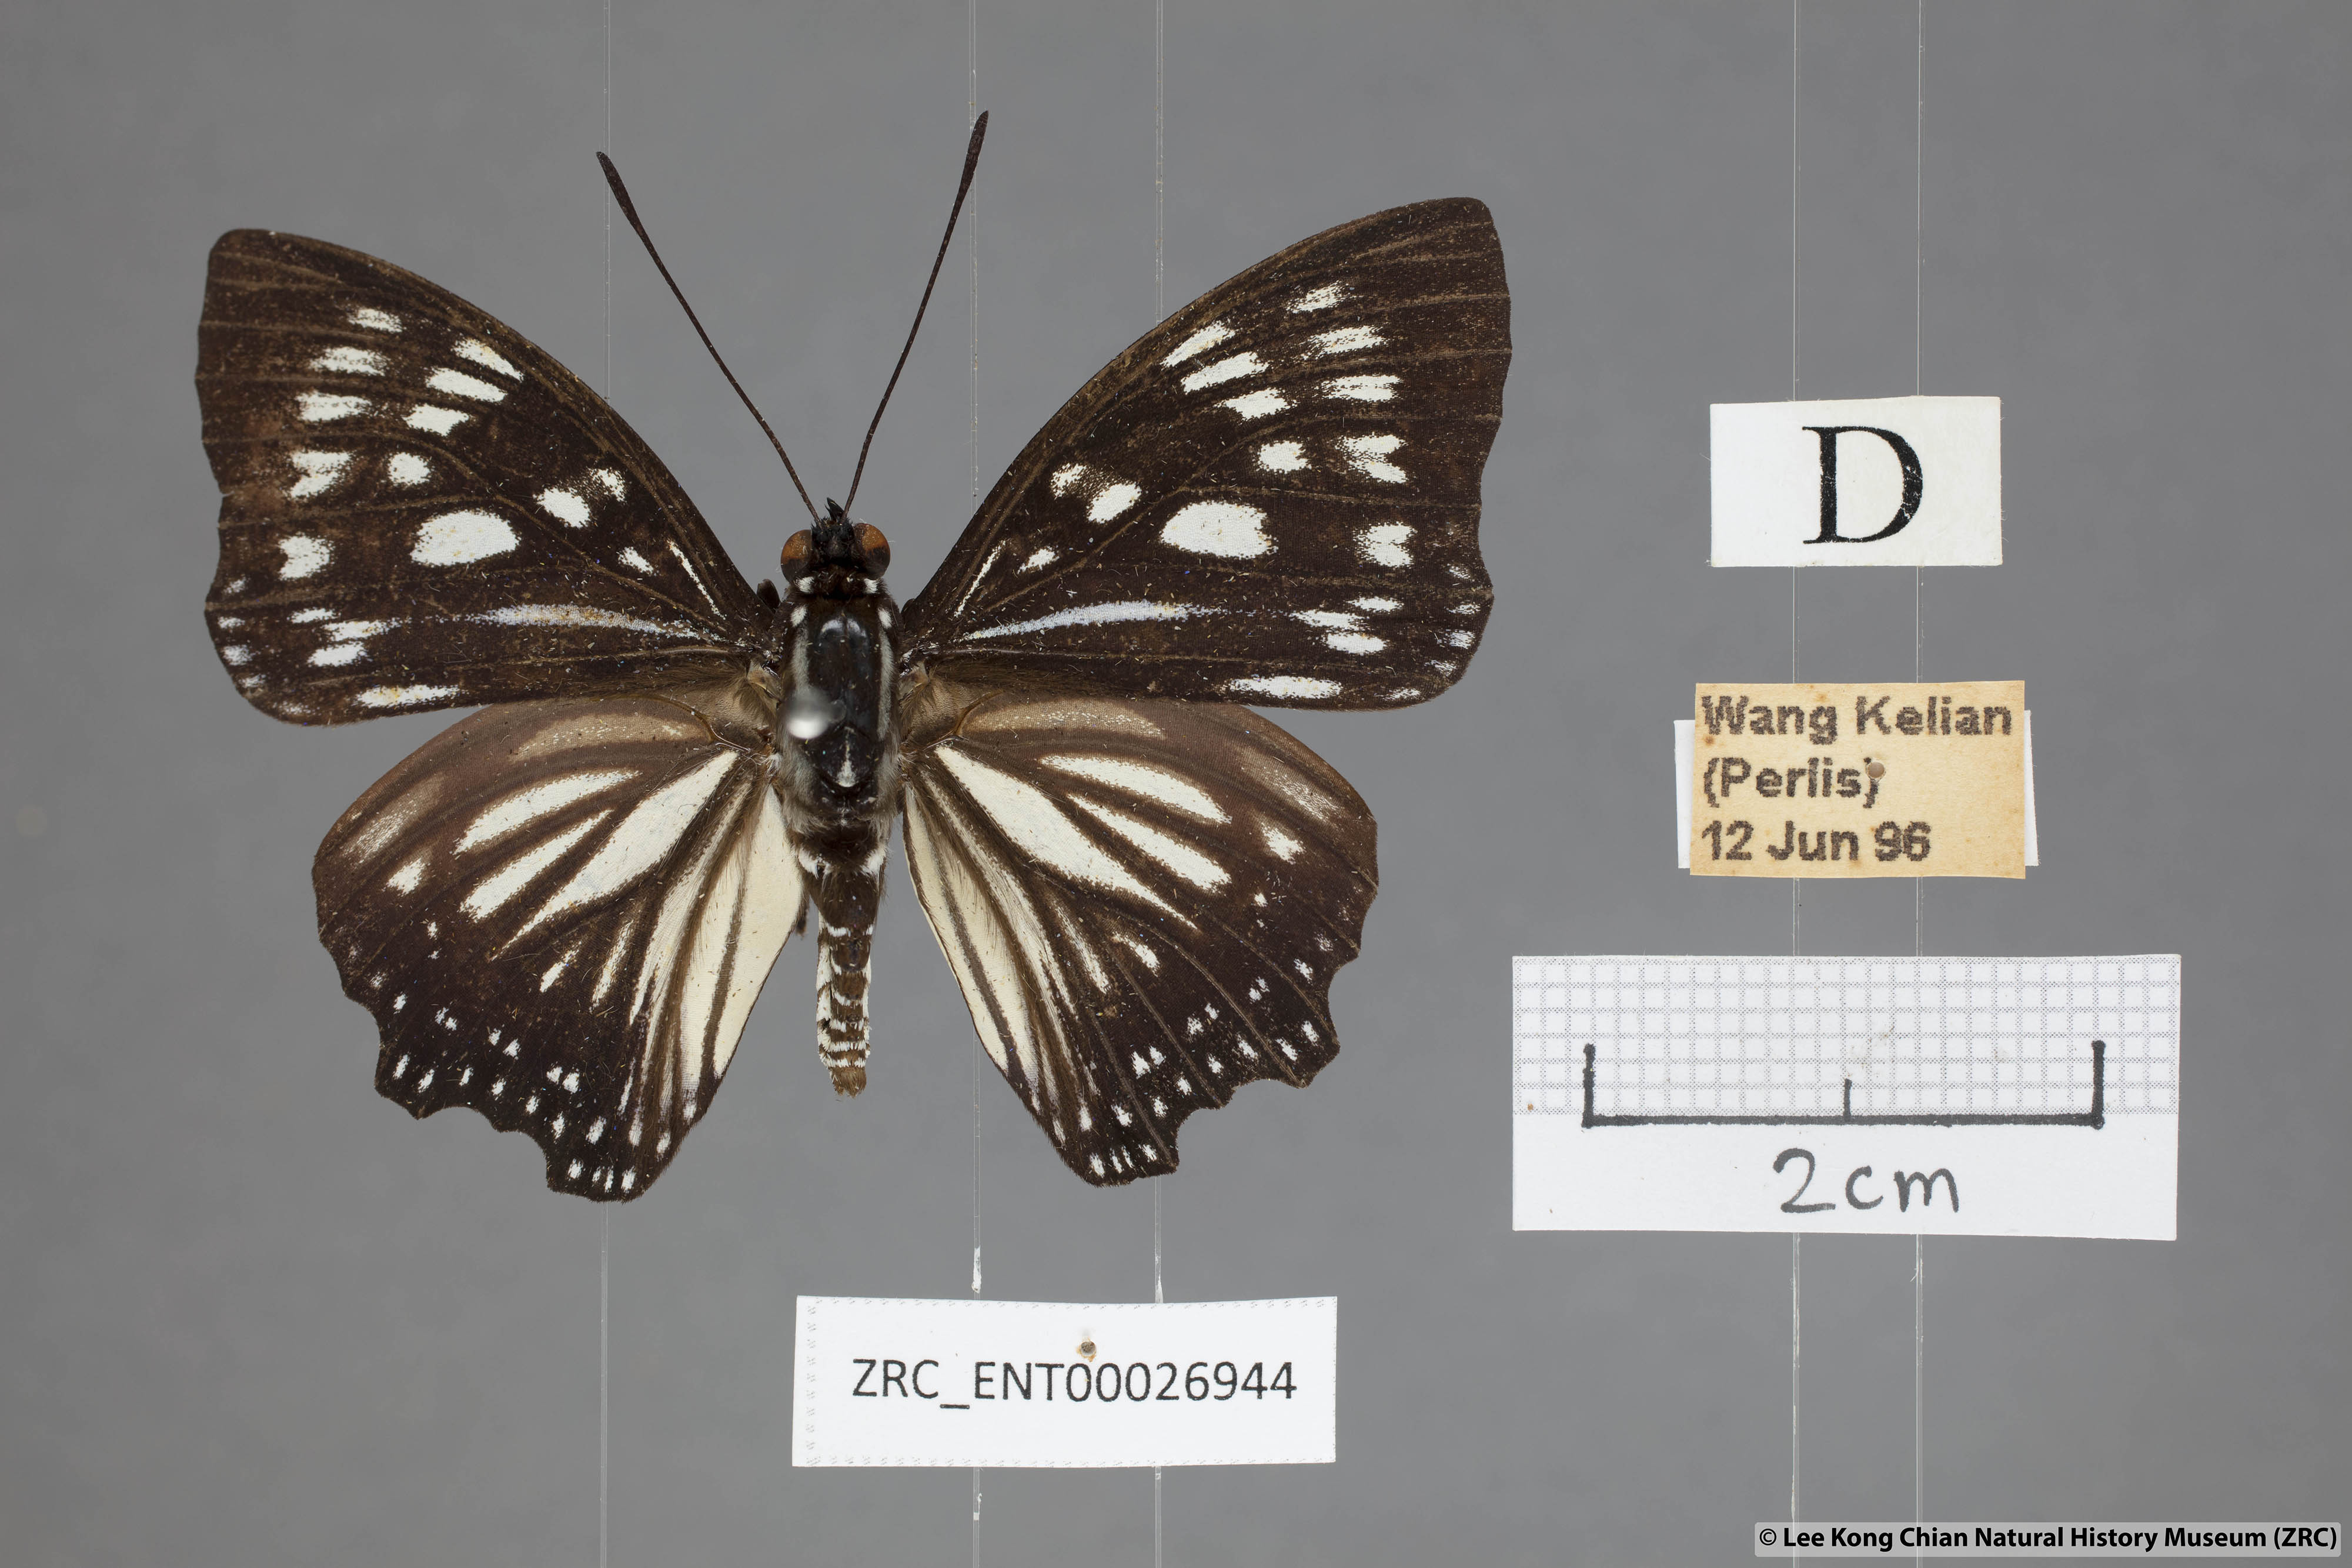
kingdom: Animalia
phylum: Arthropoda
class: Insecta
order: Lepidoptera
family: Nymphalidae
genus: Euripus
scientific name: Euripus nyctelius
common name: Courtesan
